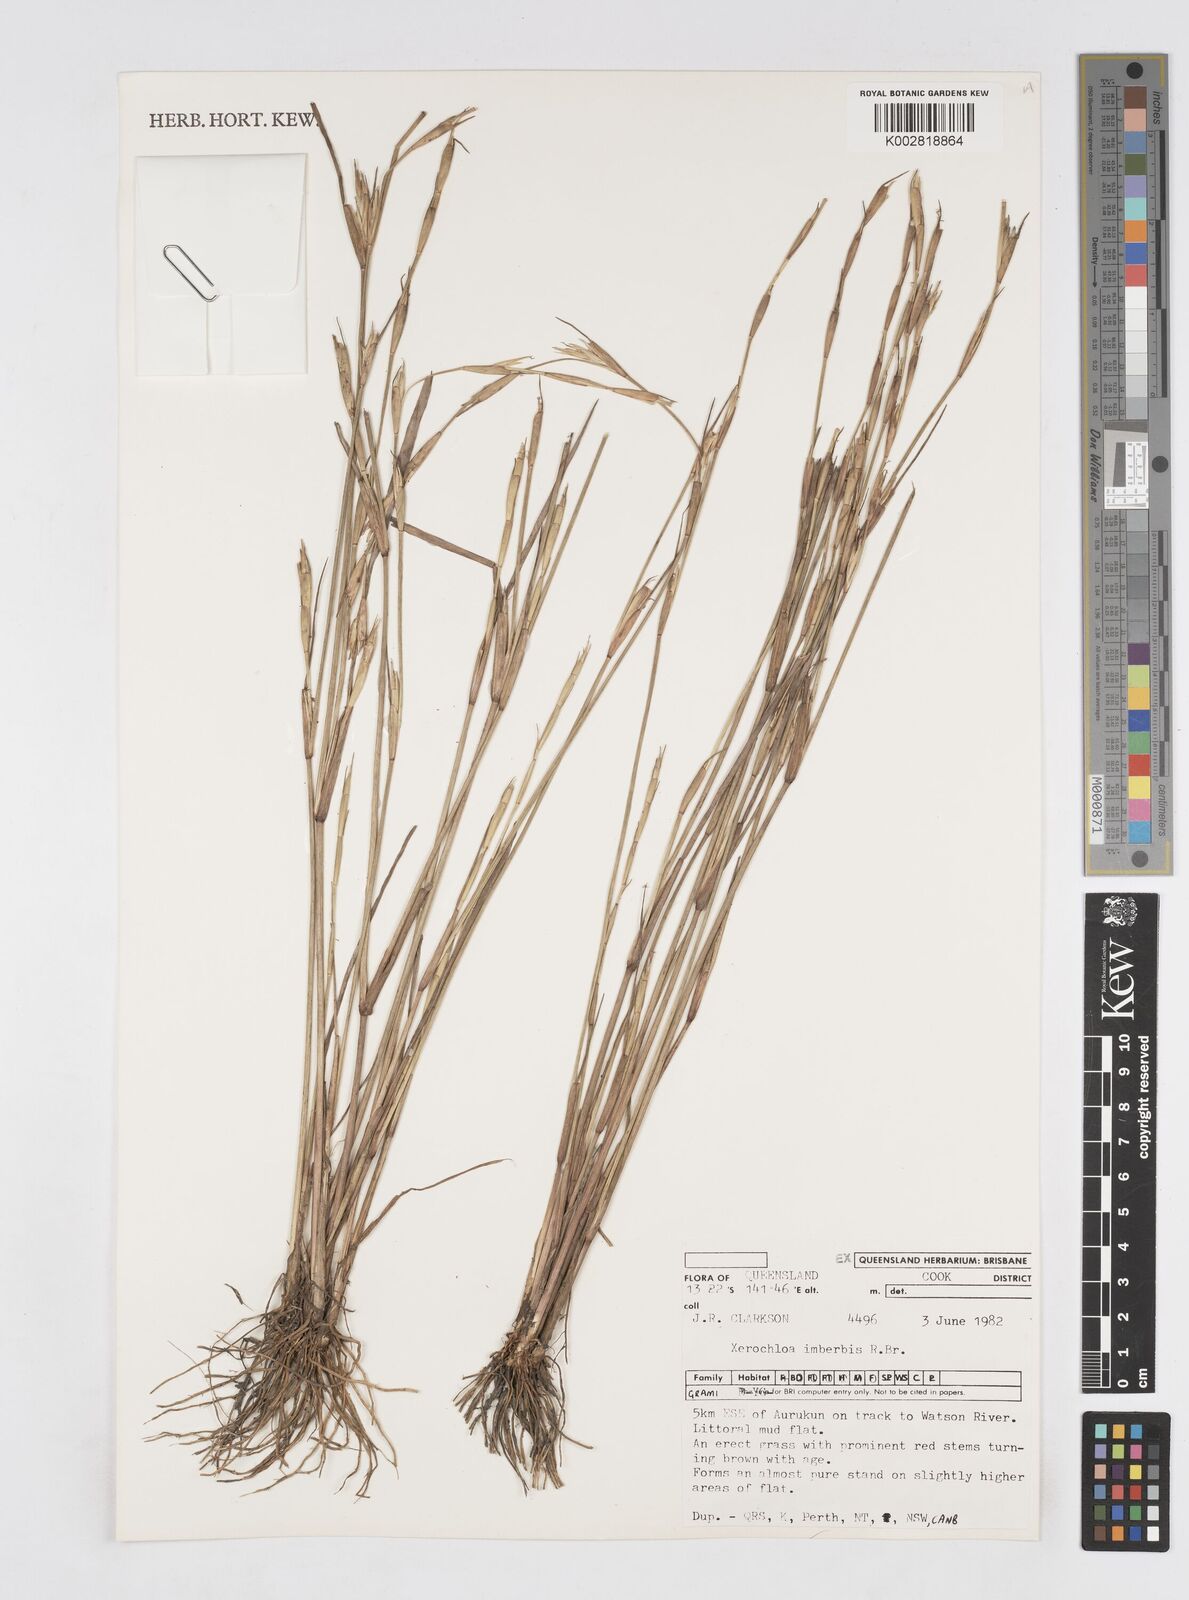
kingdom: Plantae
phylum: Tracheophyta
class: Liliopsida
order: Poales
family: Poaceae
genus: Xerochloa
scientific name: Xerochloa imberbis
